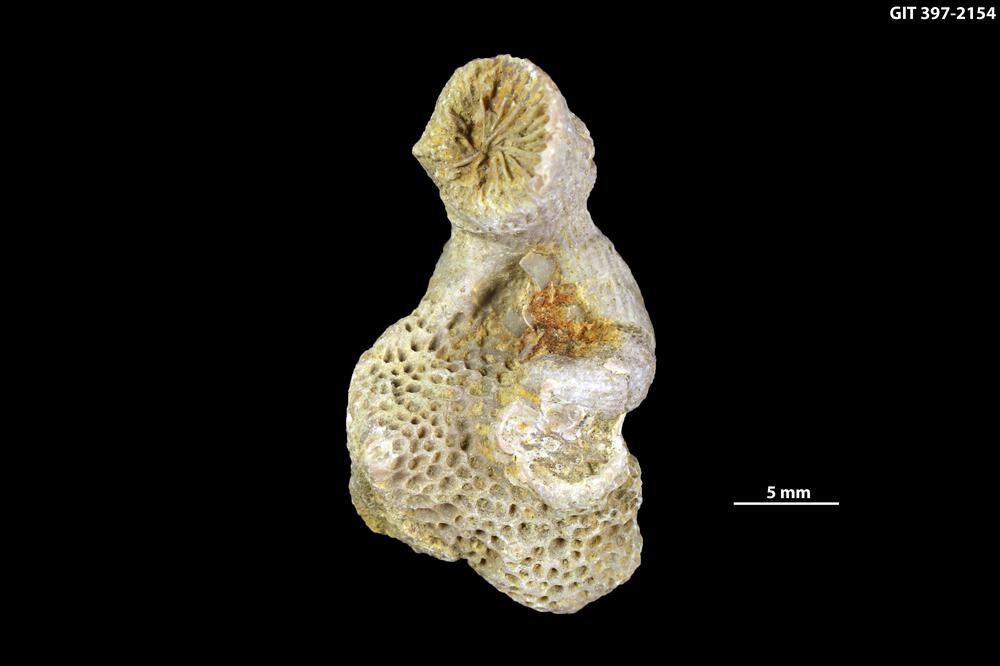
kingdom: Animalia
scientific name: Animalia
